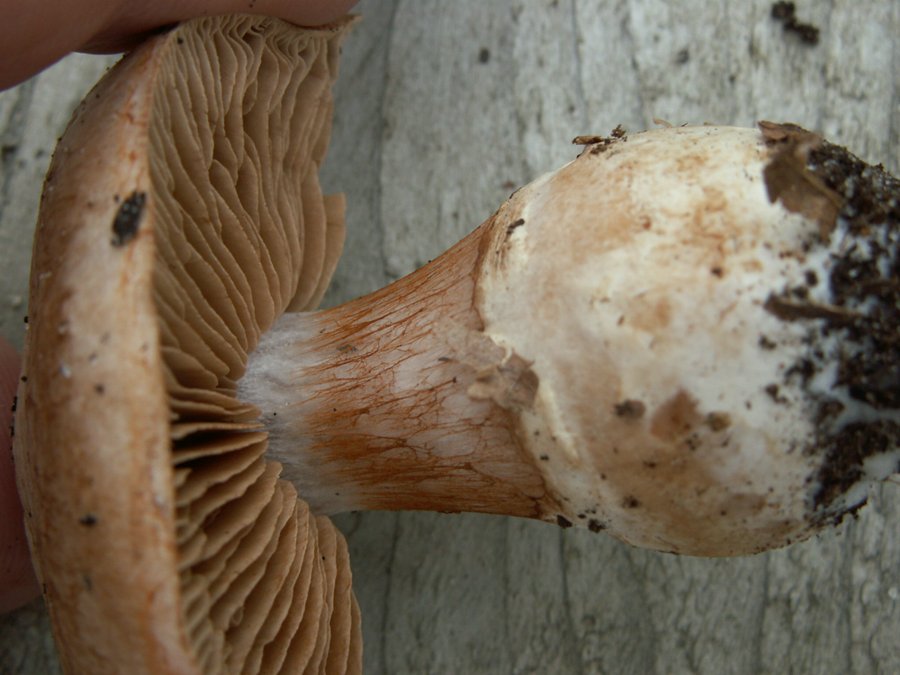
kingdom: Fungi
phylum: Basidiomycota
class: Agaricomycetes
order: Agaricales
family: Cortinariaceae
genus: Cortinarius
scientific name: Cortinarius torvus
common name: champignonagtig slørhat
